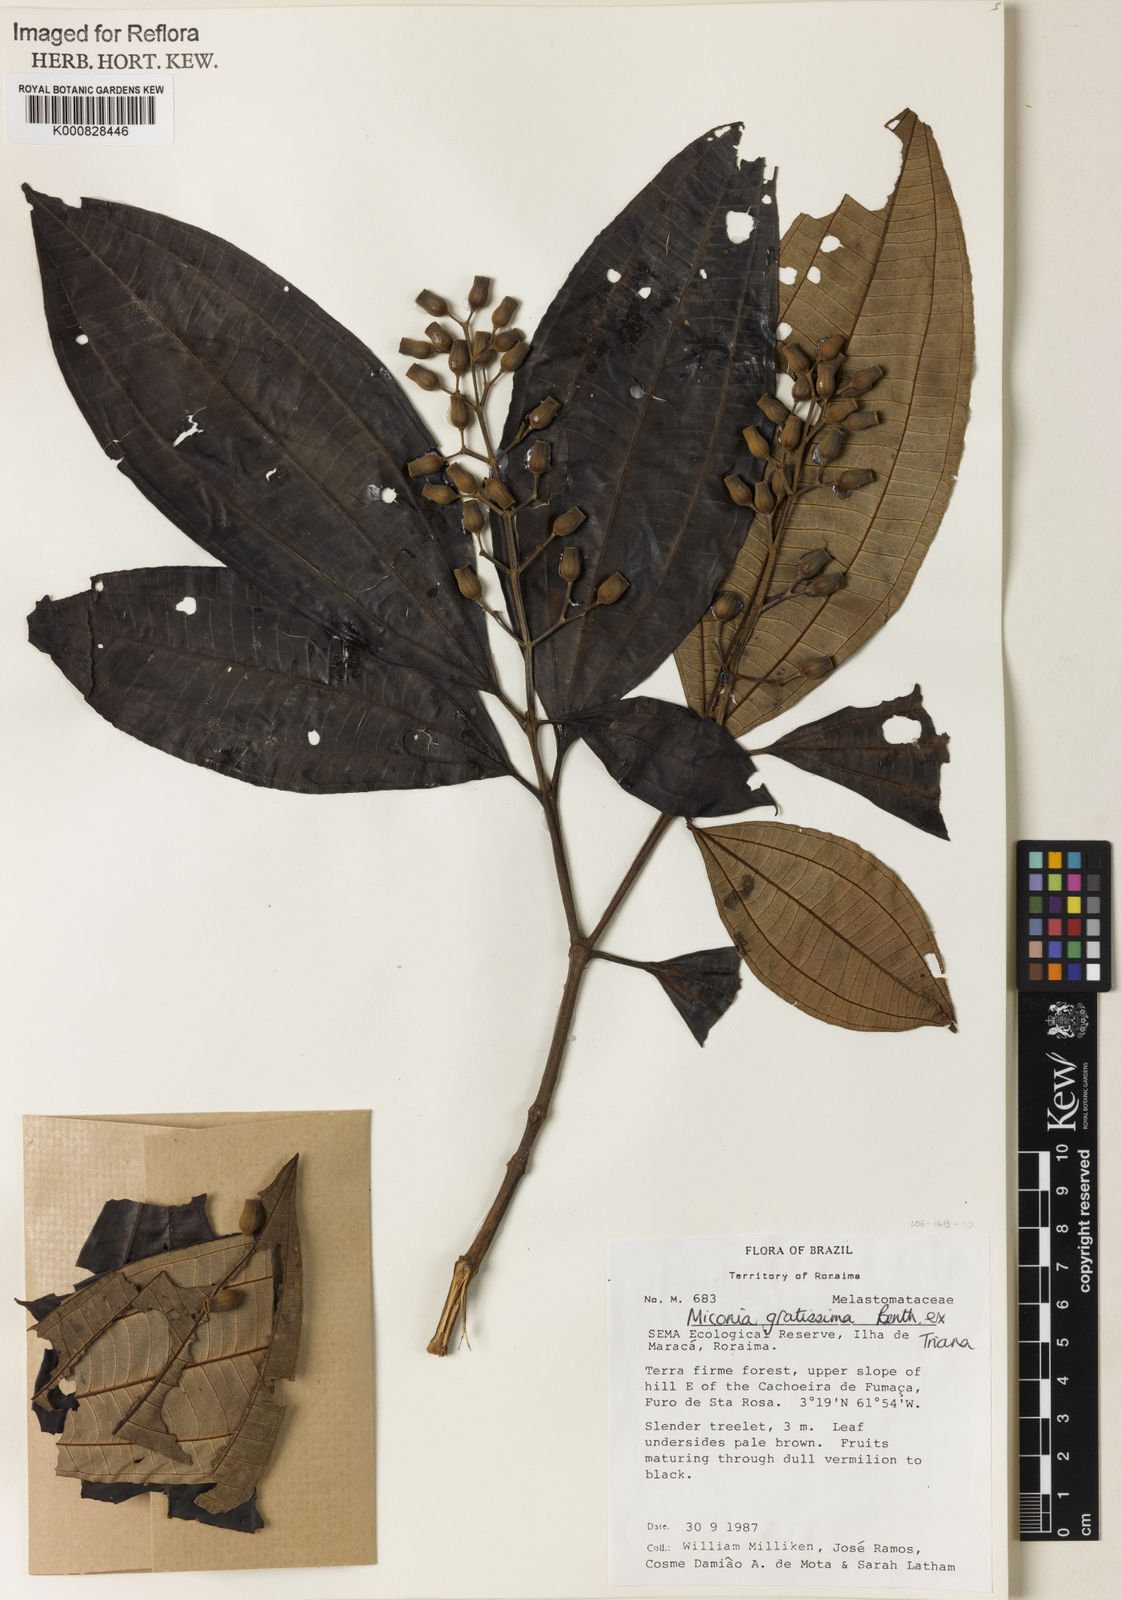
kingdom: Plantae
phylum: Tracheophyta
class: Magnoliopsida
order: Myrtales
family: Melastomataceae
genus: Miconia
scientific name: Miconia gratissima
